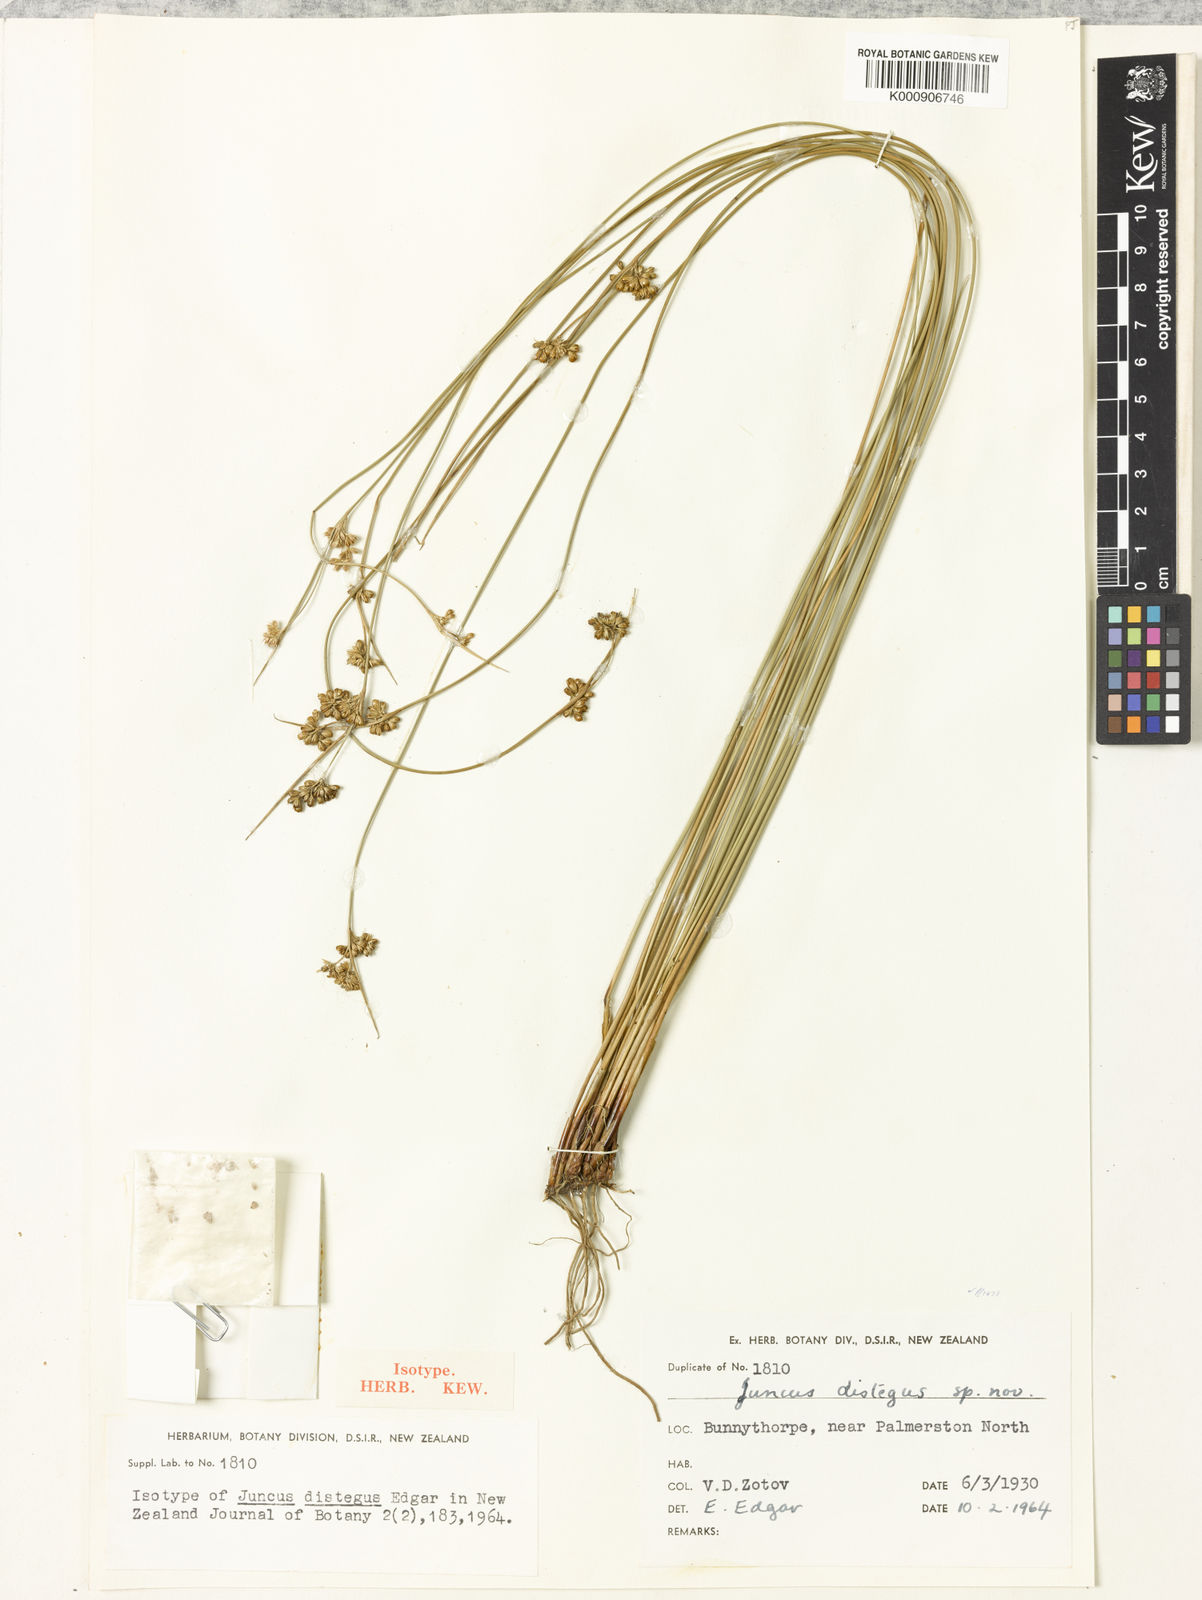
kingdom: Plantae
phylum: Tracheophyta
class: Liliopsida
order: Poales
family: Juncaceae
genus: Juncus
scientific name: Juncus distegus
